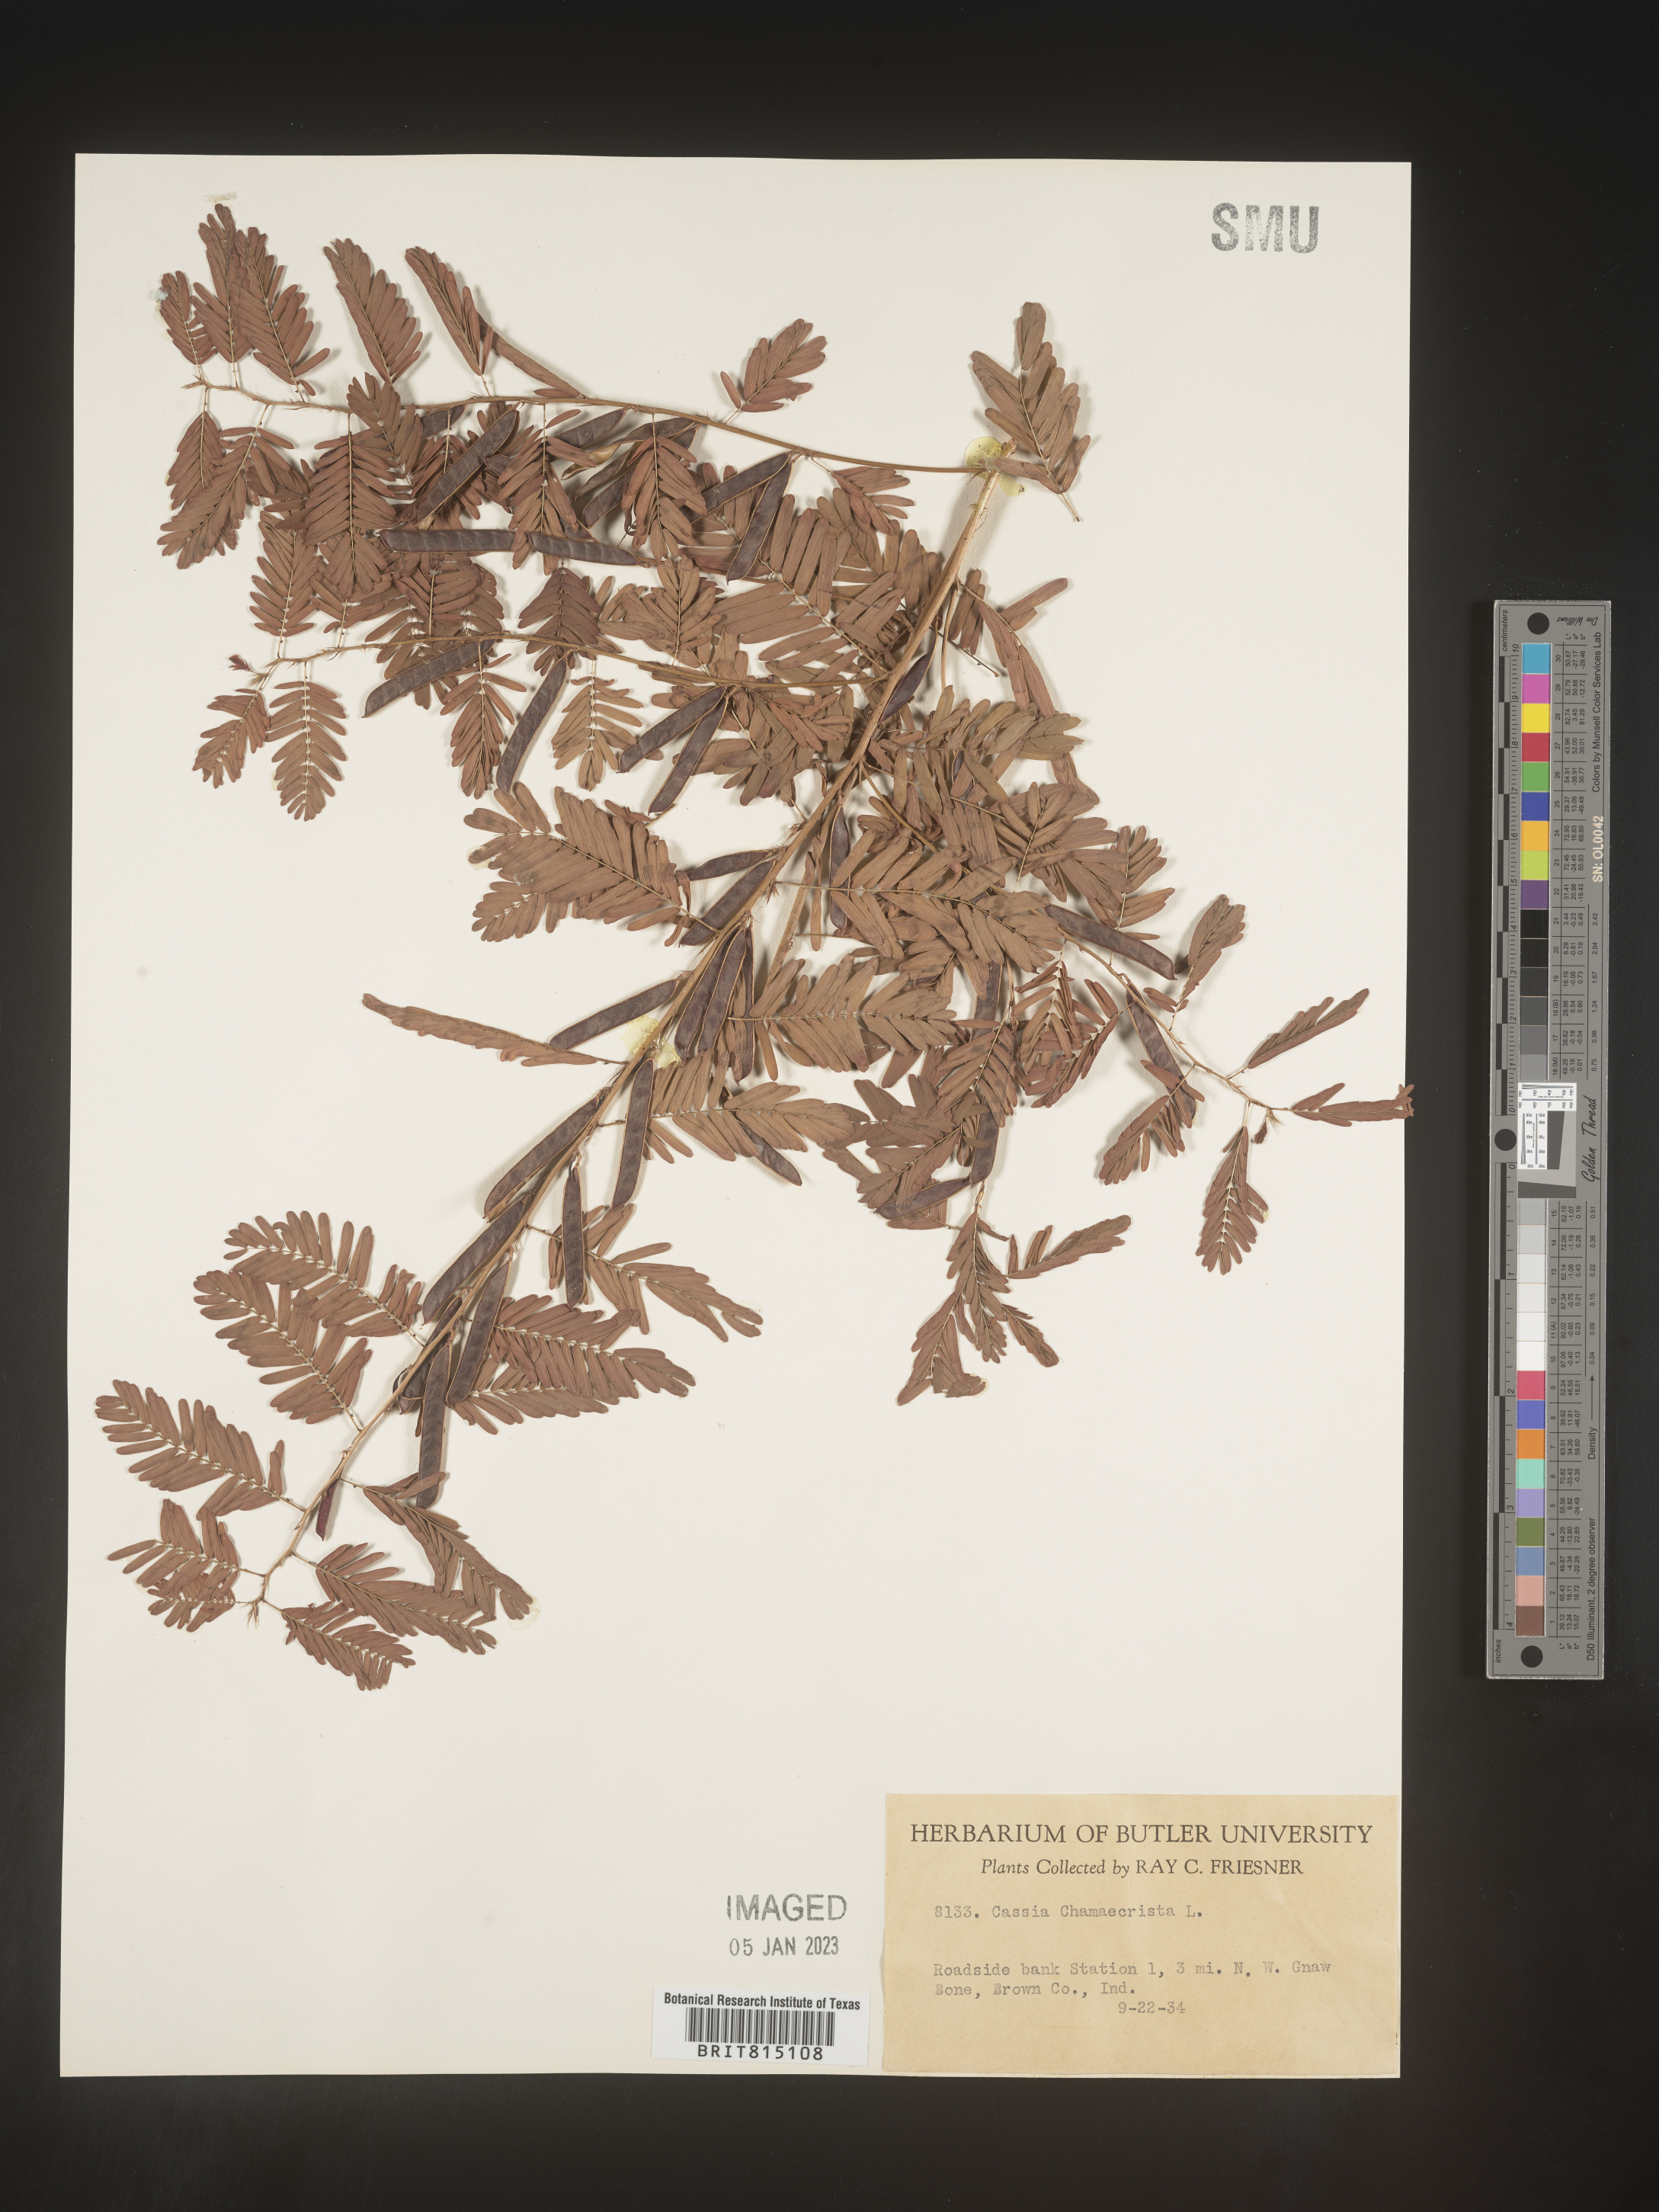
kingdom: Plantae
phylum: Tracheophyta
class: Magnoliopsida
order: Fabales
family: Fabaceae
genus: Chamaecrista
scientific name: Chamaecrista fasciculata
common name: Golden cassia
